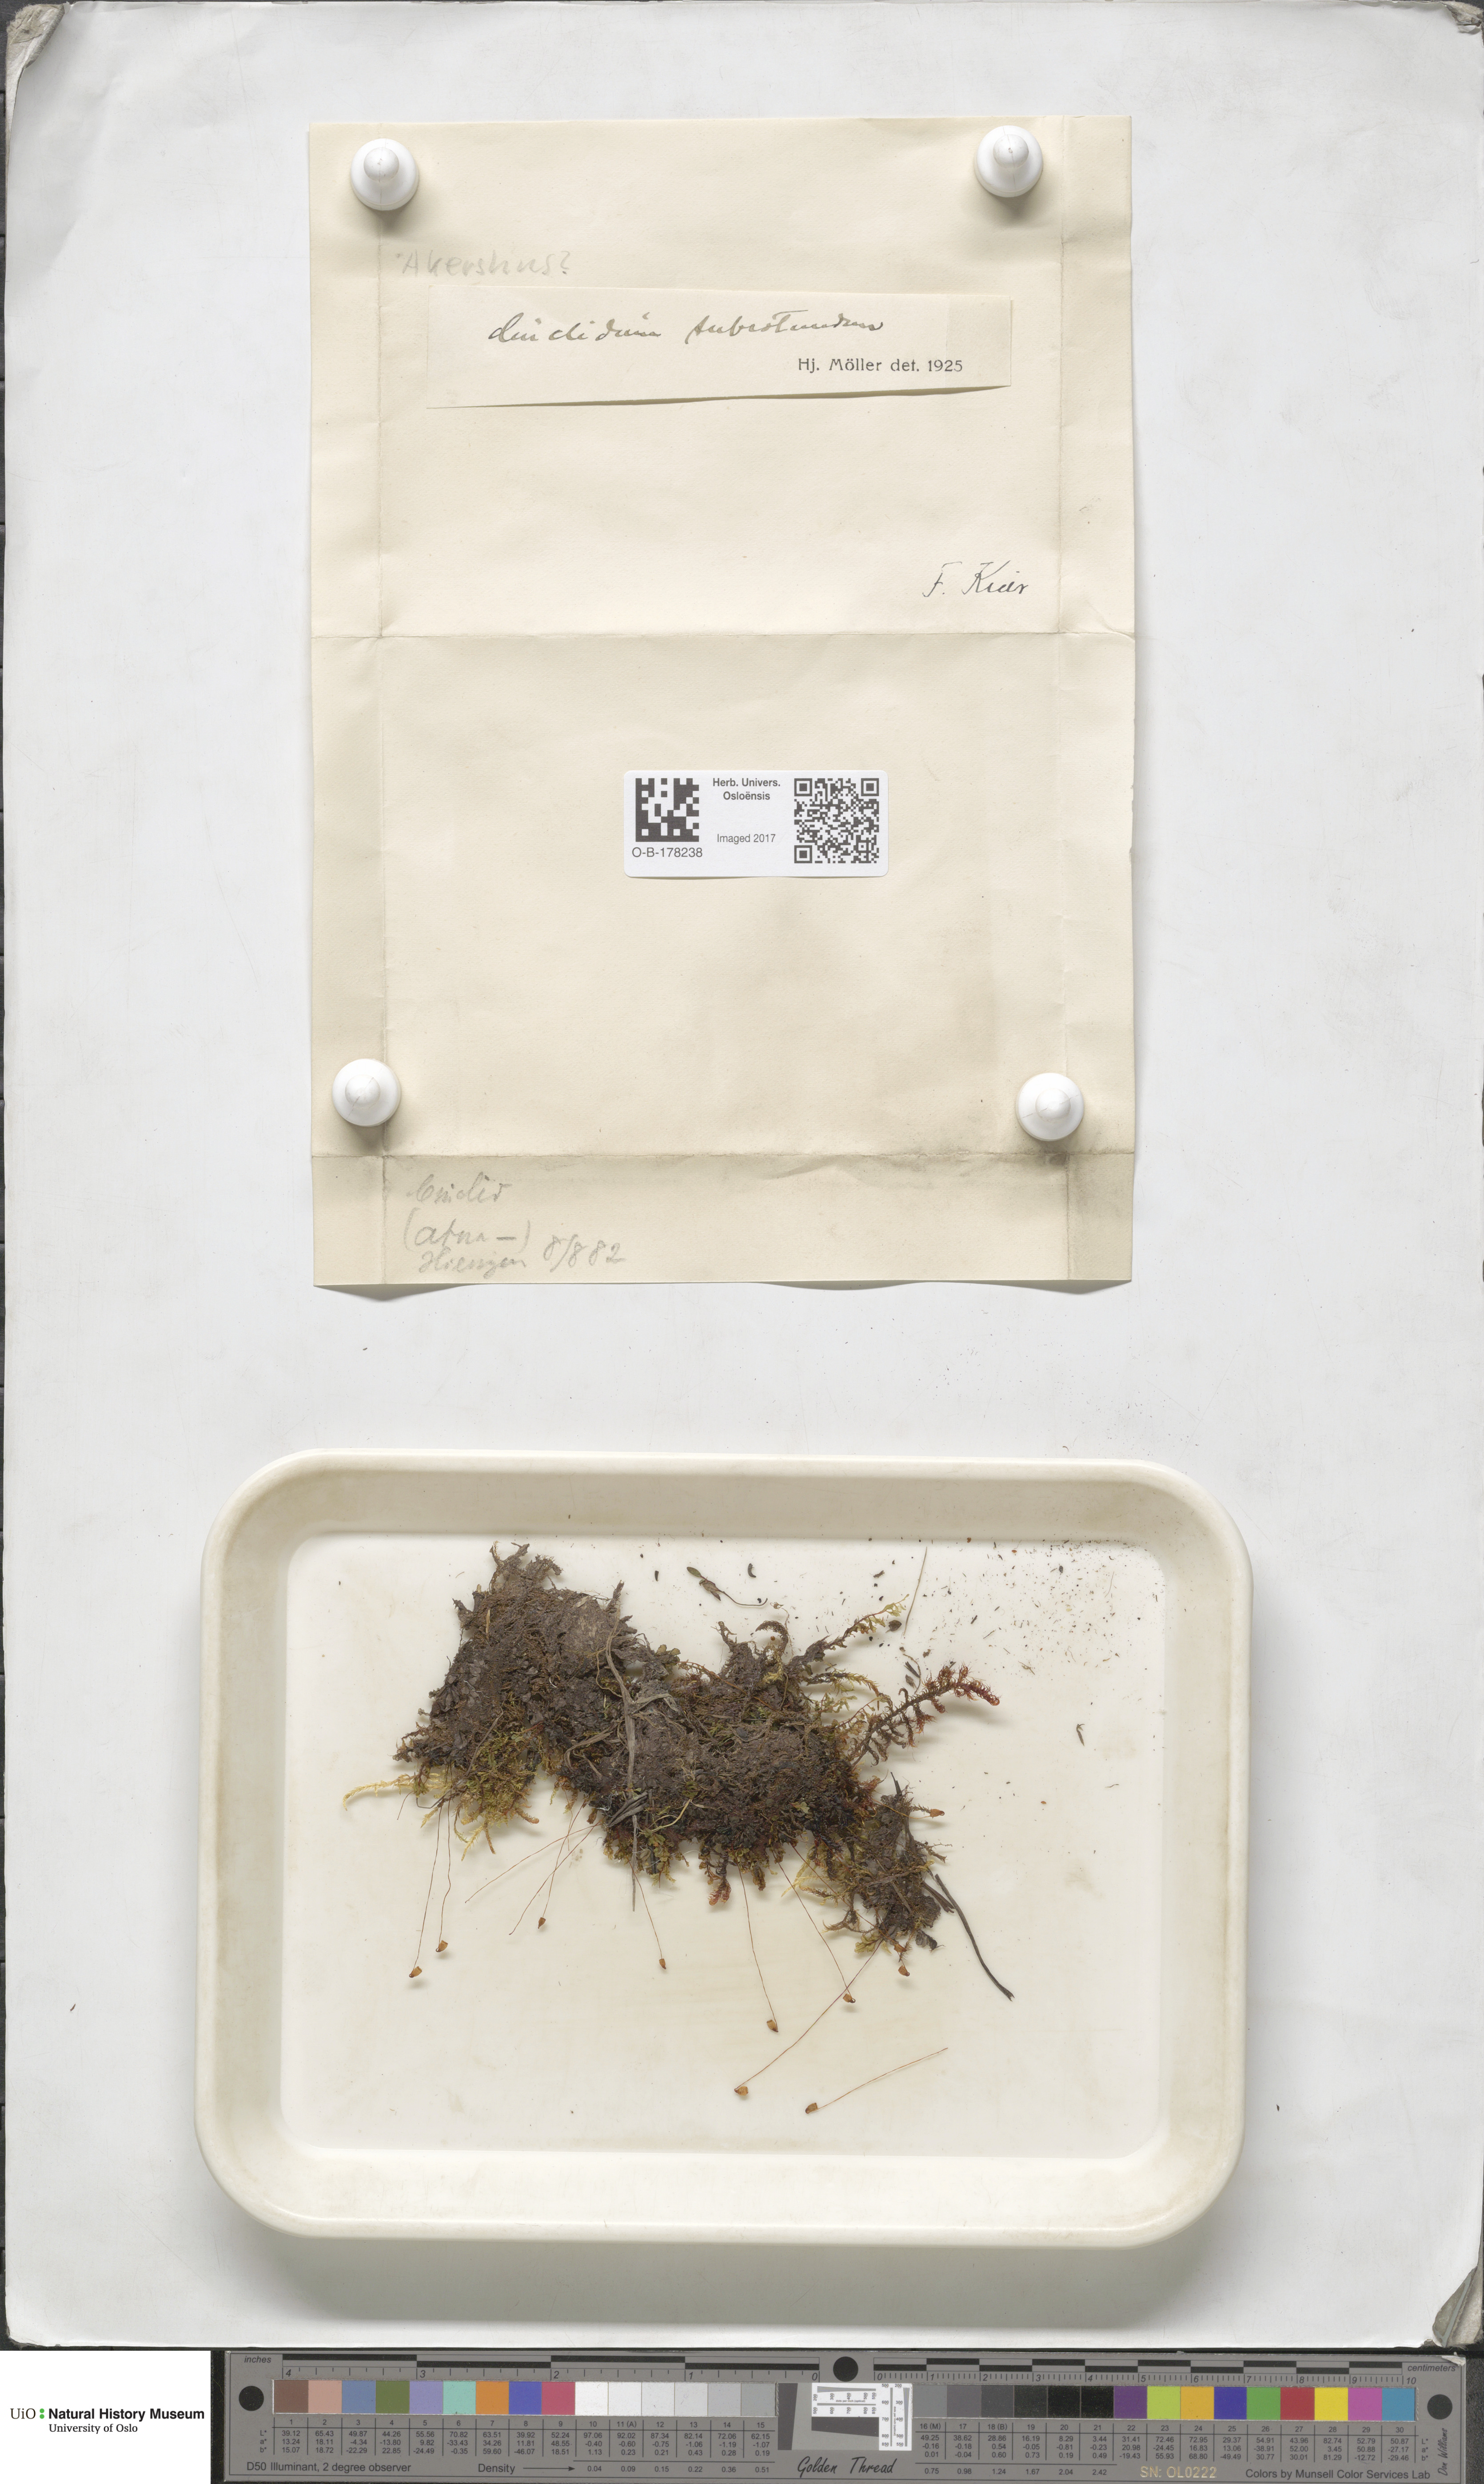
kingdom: Plantae
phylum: Bryophyta
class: Bryopsida
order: Bryales
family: Mniaceae
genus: Cinclidium
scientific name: Cinclidium subrotundum
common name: Ovate cupola moss
